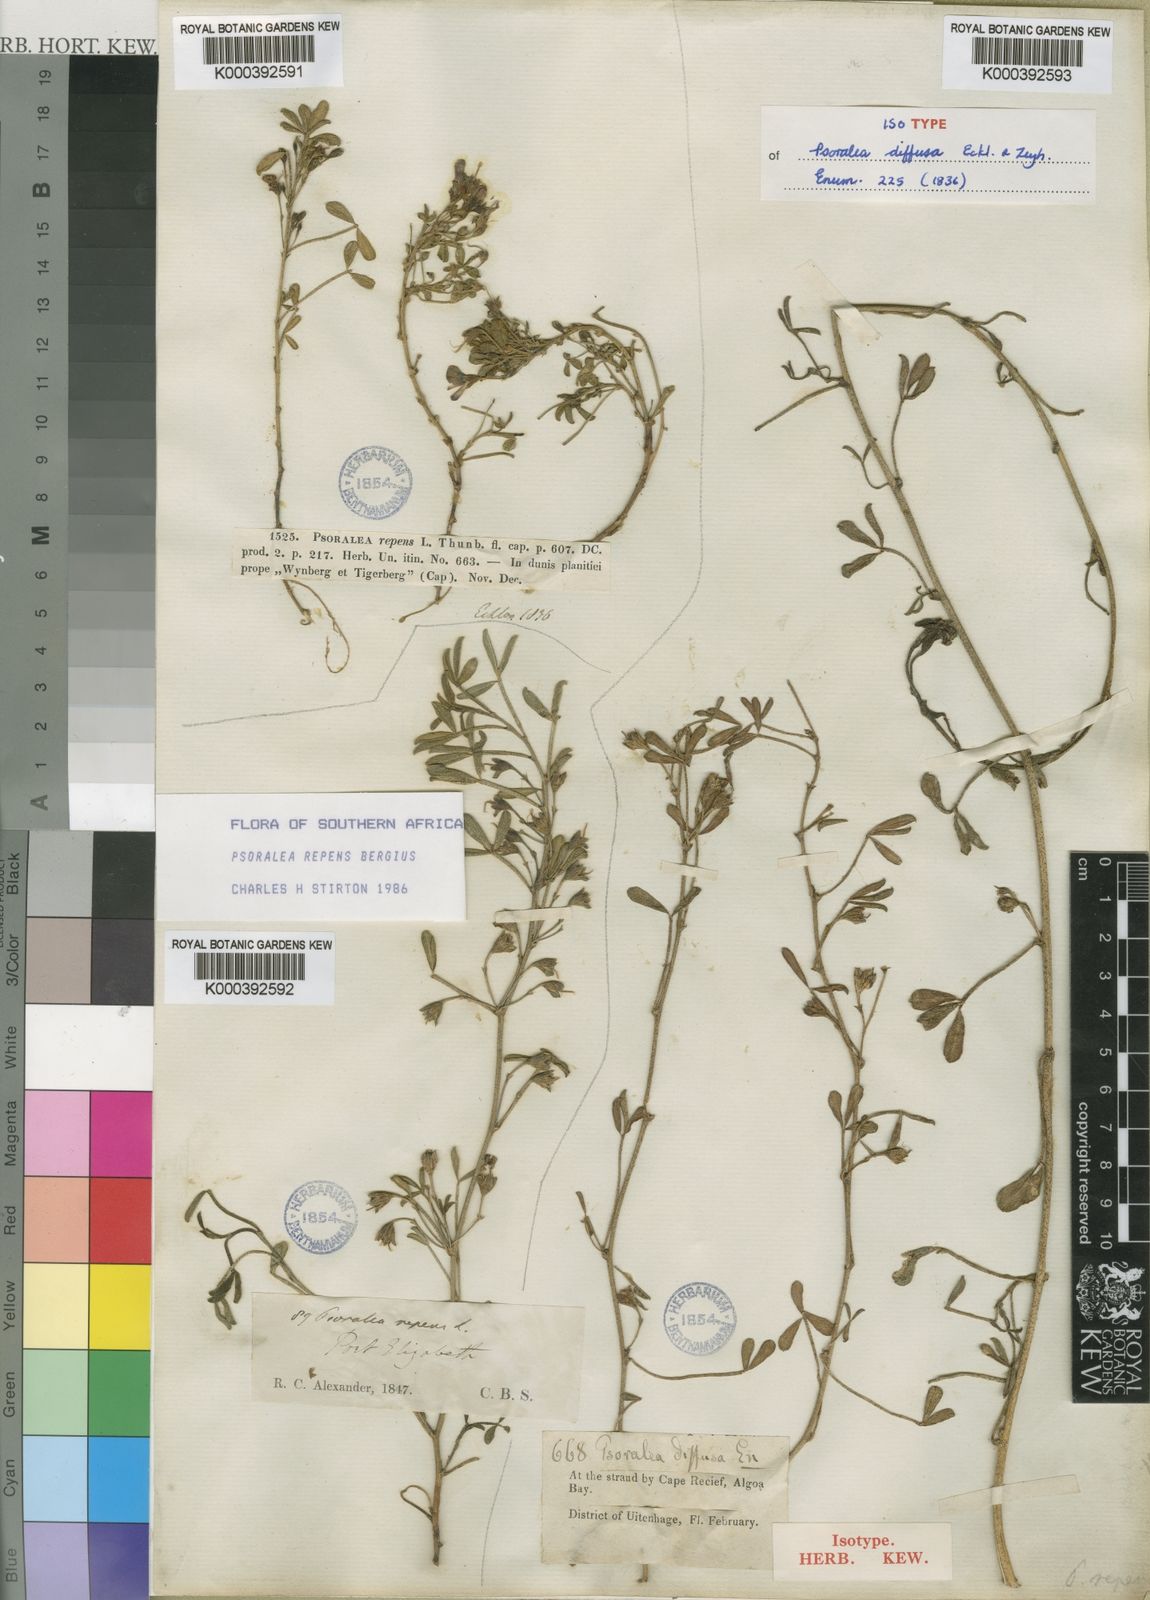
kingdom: Plantae
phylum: Tracheophyta
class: Magnoliopsida
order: Fabales
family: Fabaceae
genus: Psoralea
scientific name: Psoralea
